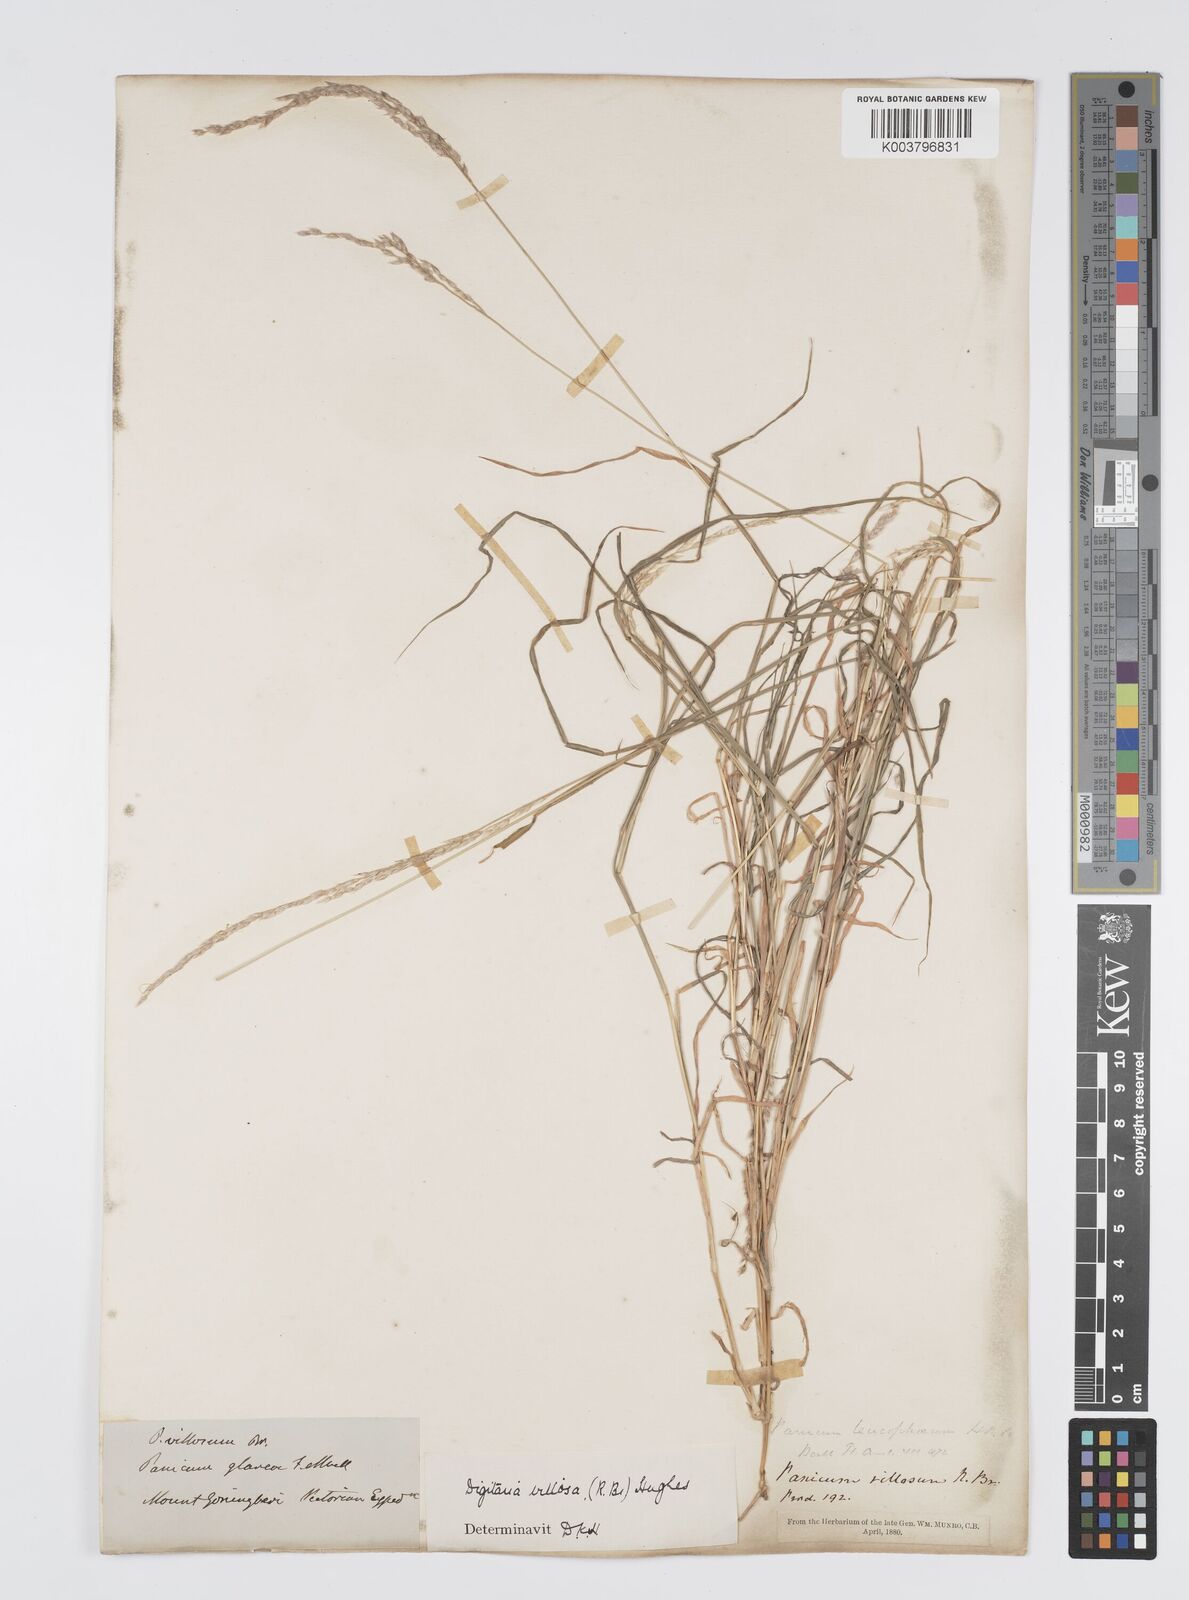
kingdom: Plantae
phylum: Tracheophyta
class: Liliopsida
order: Poales
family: Poaceae
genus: Digitaria
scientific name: Digitaria brownii
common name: Cotton grass
